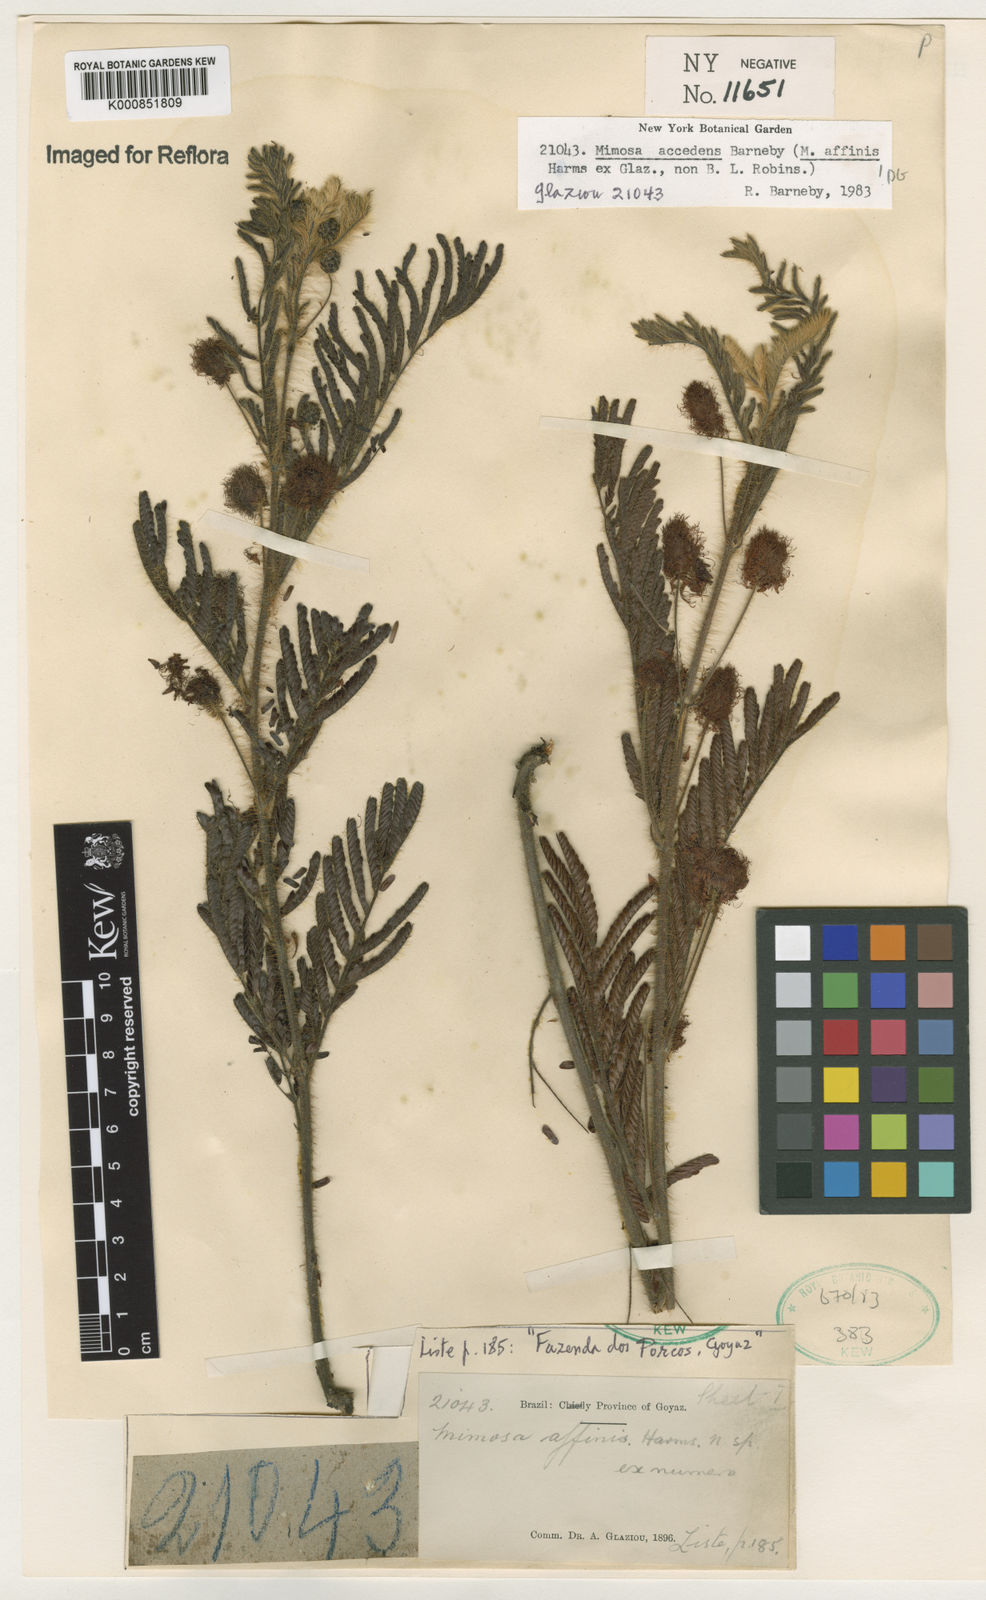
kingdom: Plantae
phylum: Tracheophyta
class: Magnoliopsida
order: Fabales
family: Fabaceae
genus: Mimosa
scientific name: Mimosa accedens
